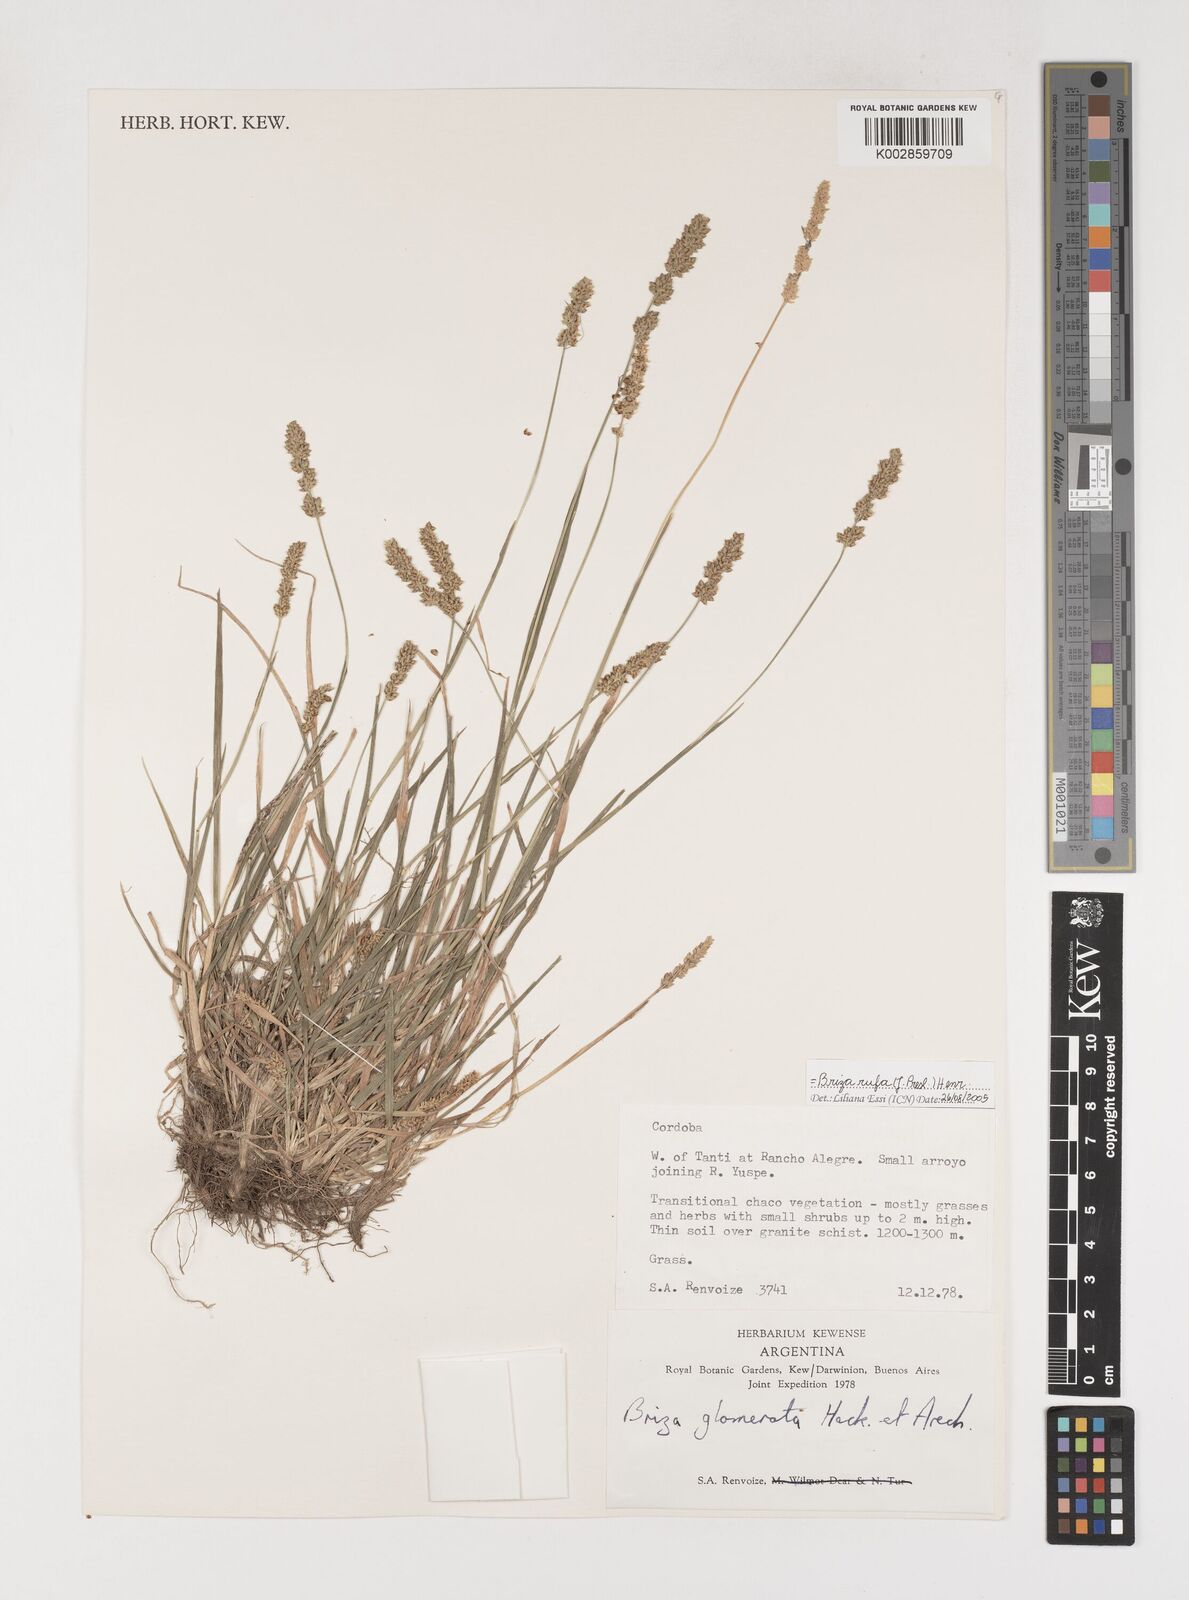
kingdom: Plantae
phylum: Tracheophyta
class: Liliopsida
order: Poales
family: Poaceae
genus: Lombardochloa
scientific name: Lombardochloa rufa
